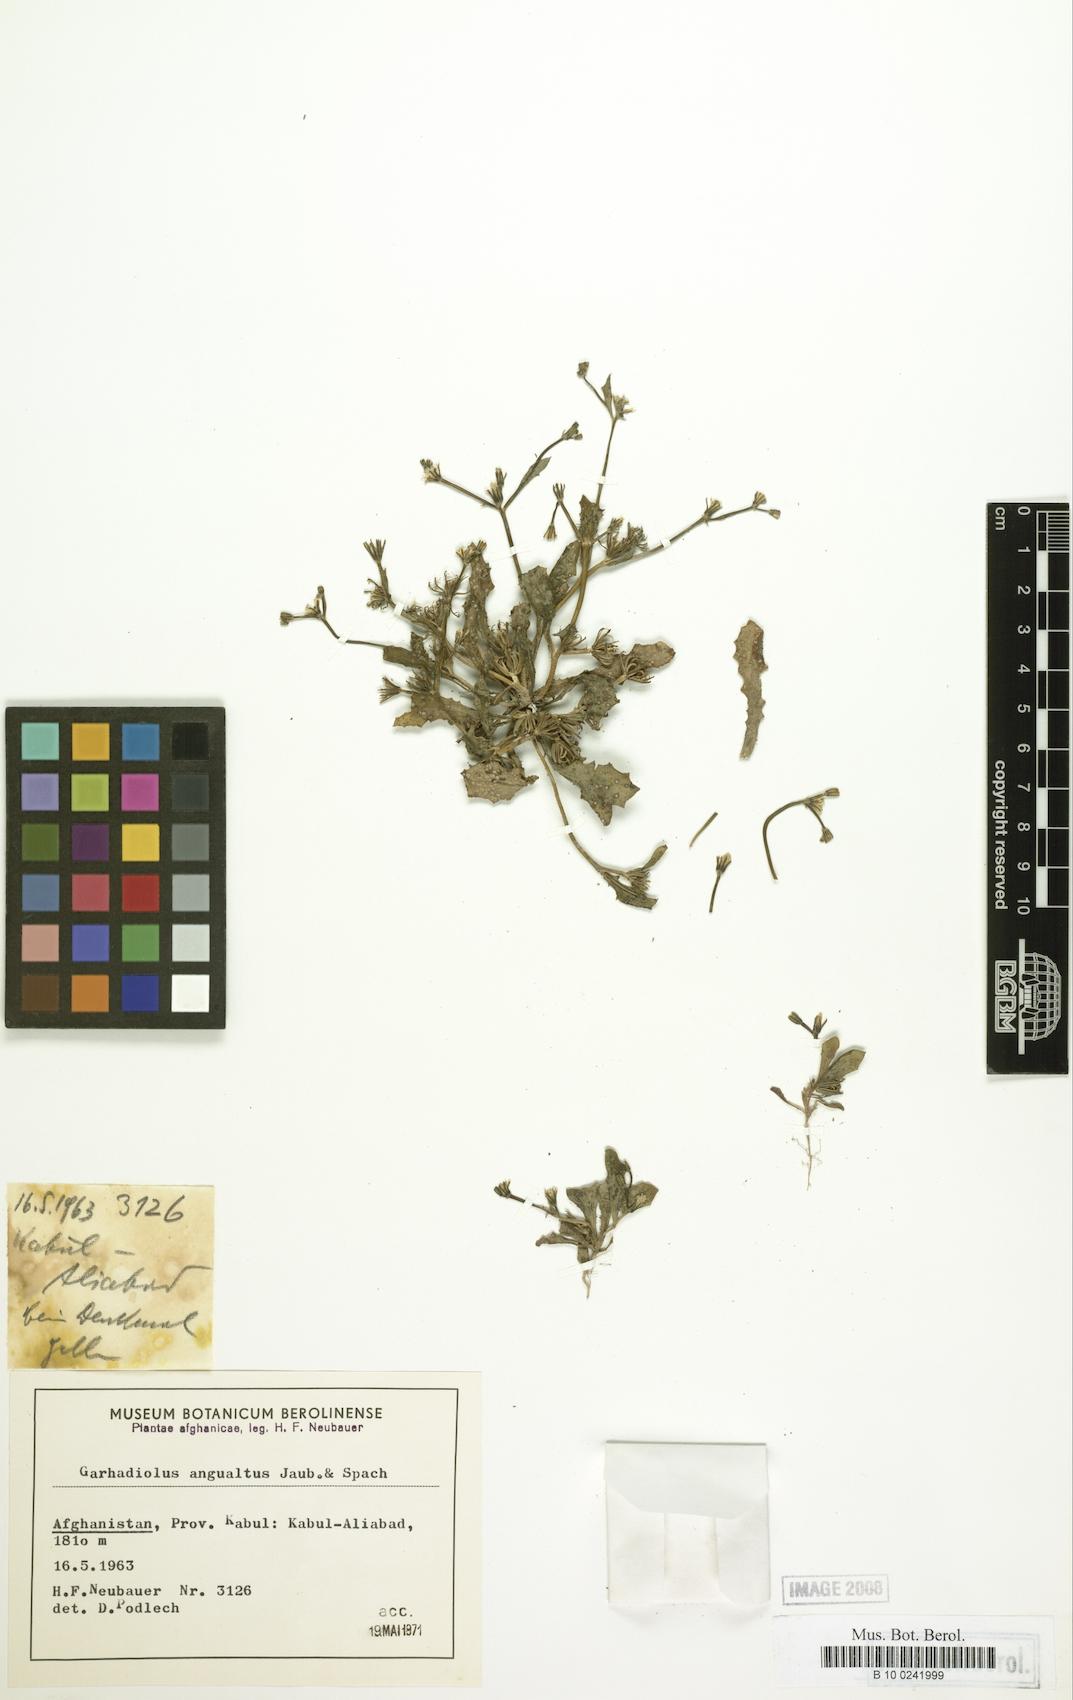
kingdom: Plantae
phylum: Tracheophyta
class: Magnoliopsida
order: Asterales
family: Asteraceae
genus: Garhadiolus
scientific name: Garhadiolus hedypnois
